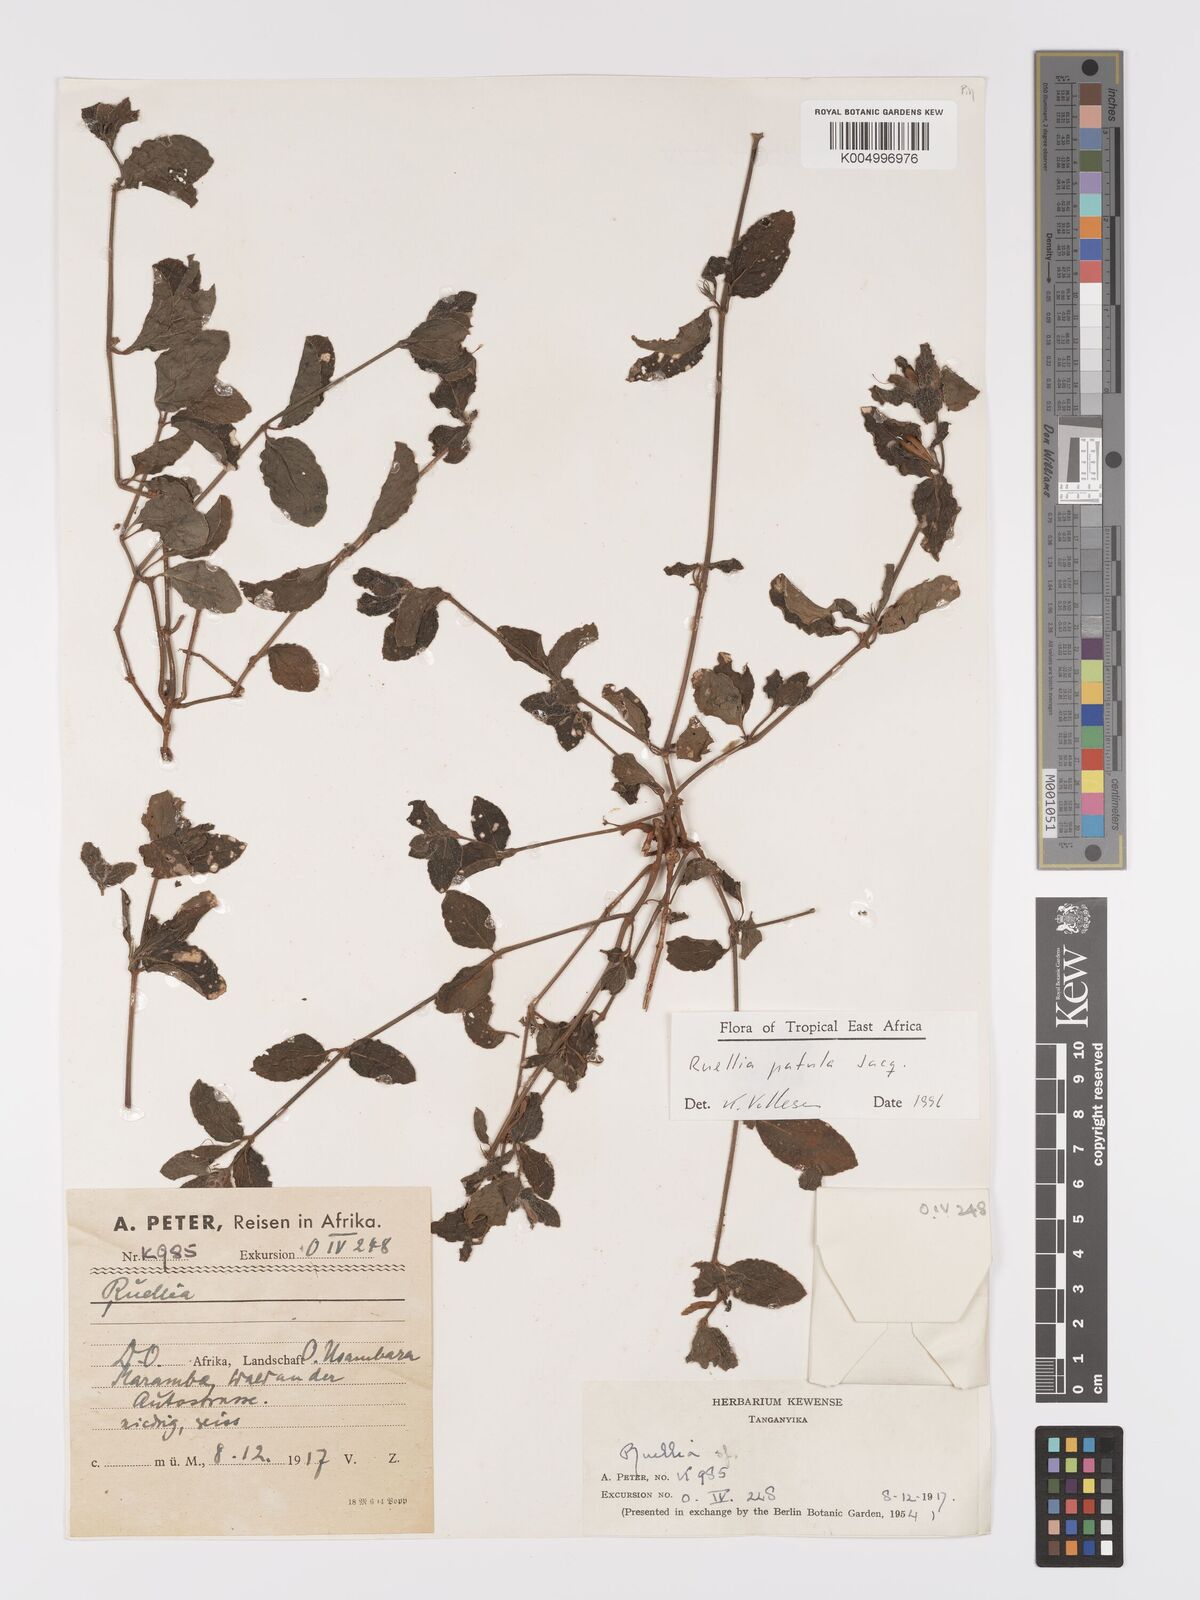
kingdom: Plantae
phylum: Tracheophyta
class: Magnoliopsida
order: Lamiales
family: Acanthaceae
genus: Ruellia
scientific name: Ruellia patula
